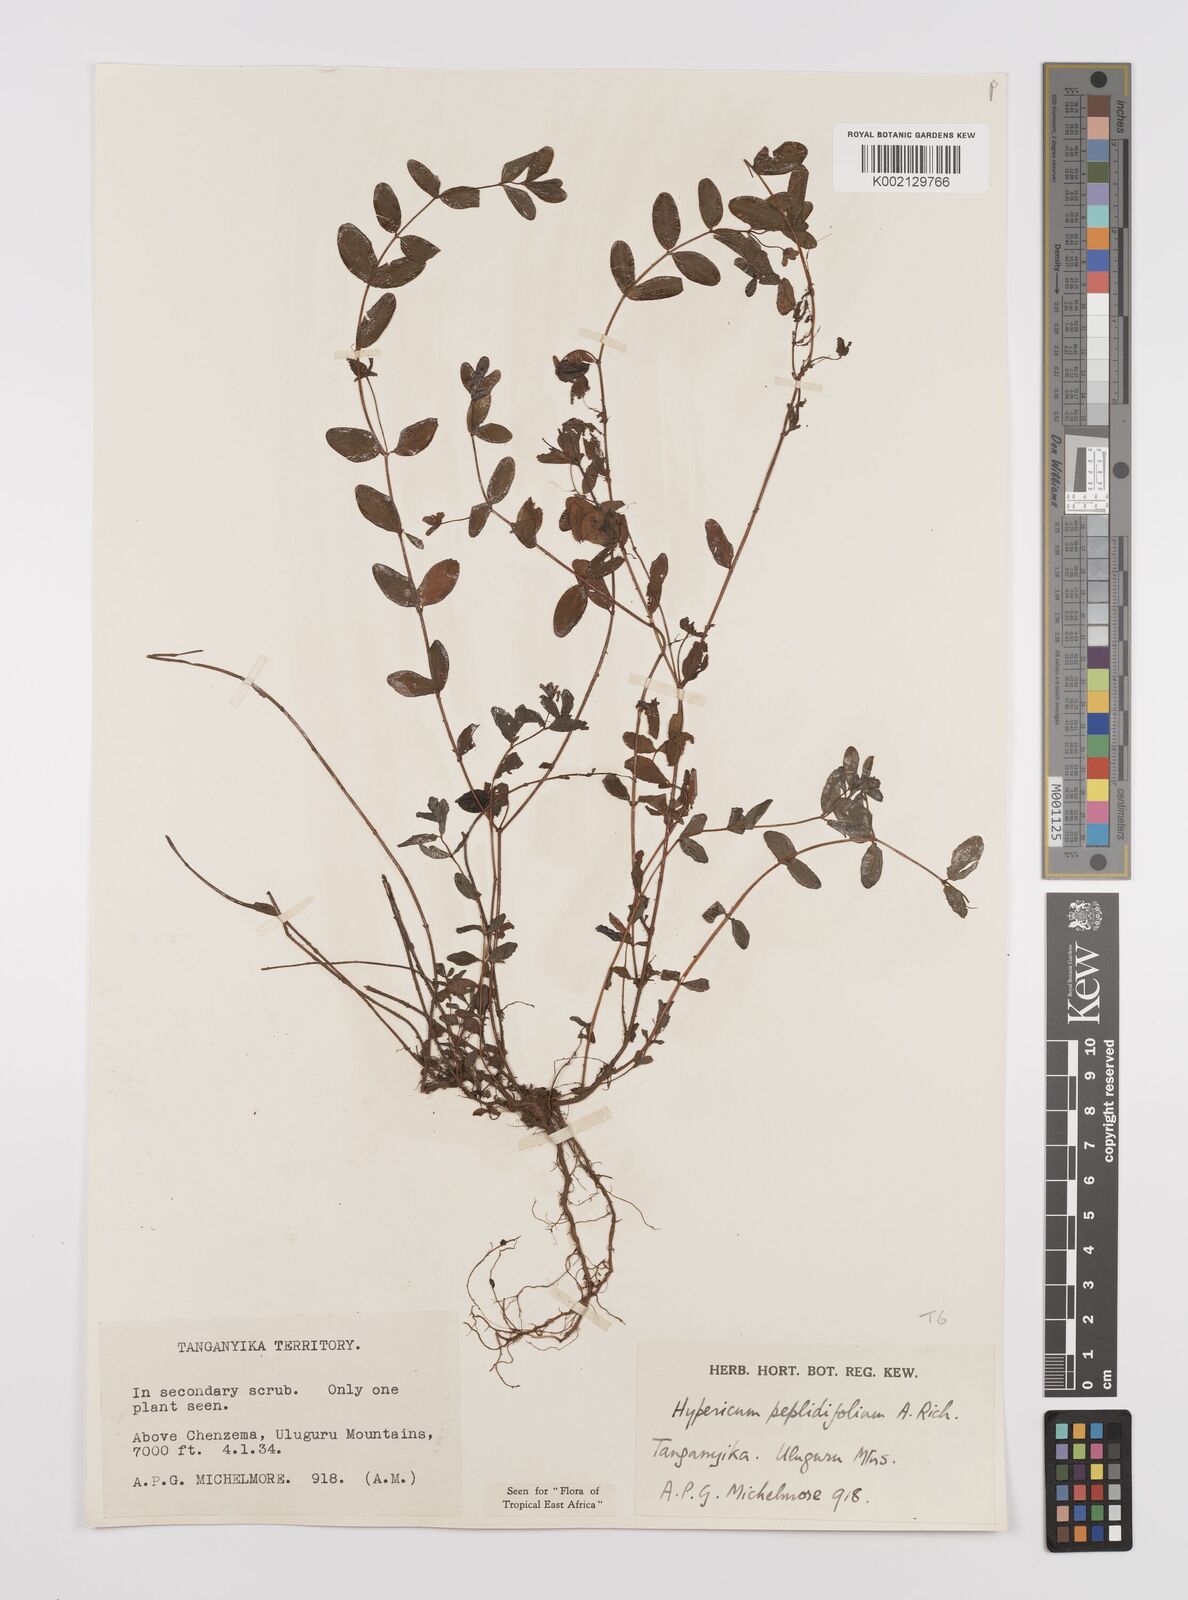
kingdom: Plantae
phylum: Tracheophyta
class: Magnoliopsida
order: Malpighiales
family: Hypericaceae
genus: Hypericum
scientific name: Hypericum peplidifolium
